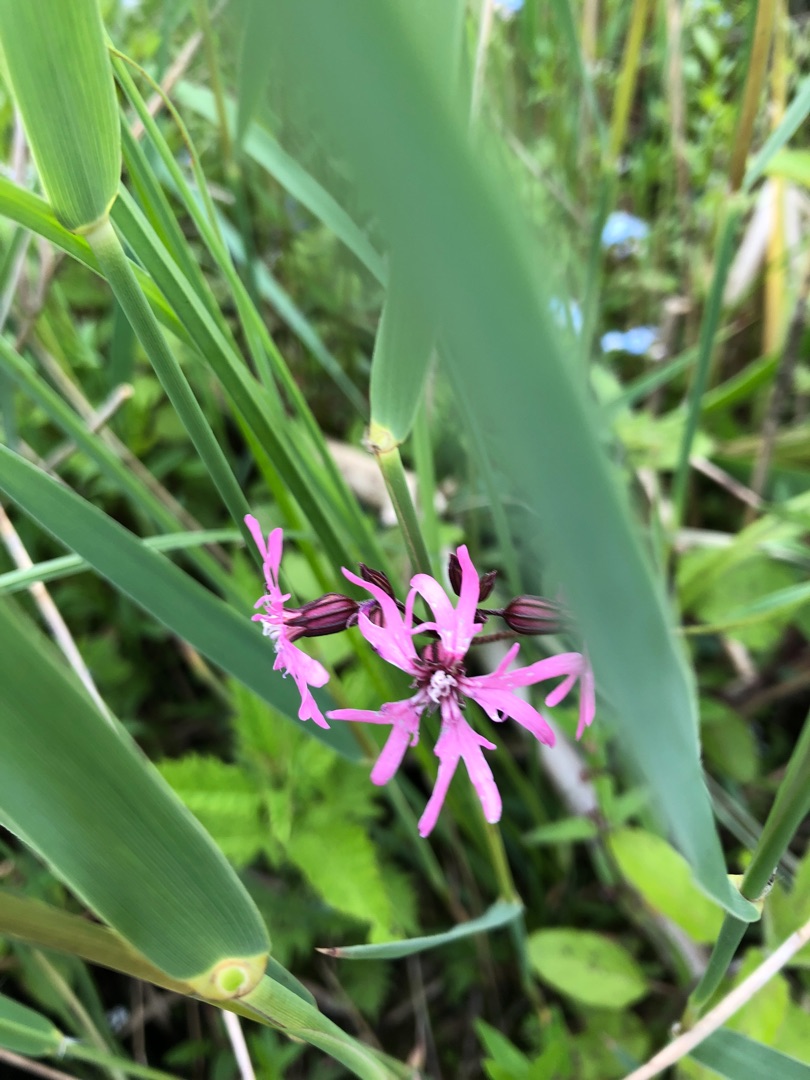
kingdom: Plantae
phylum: Tracheophyta
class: Magnoliopsida
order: Caryophyllales
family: Caryophyllaceae
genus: Silene
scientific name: Silene flos-cuculi
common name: Trævlekrone
